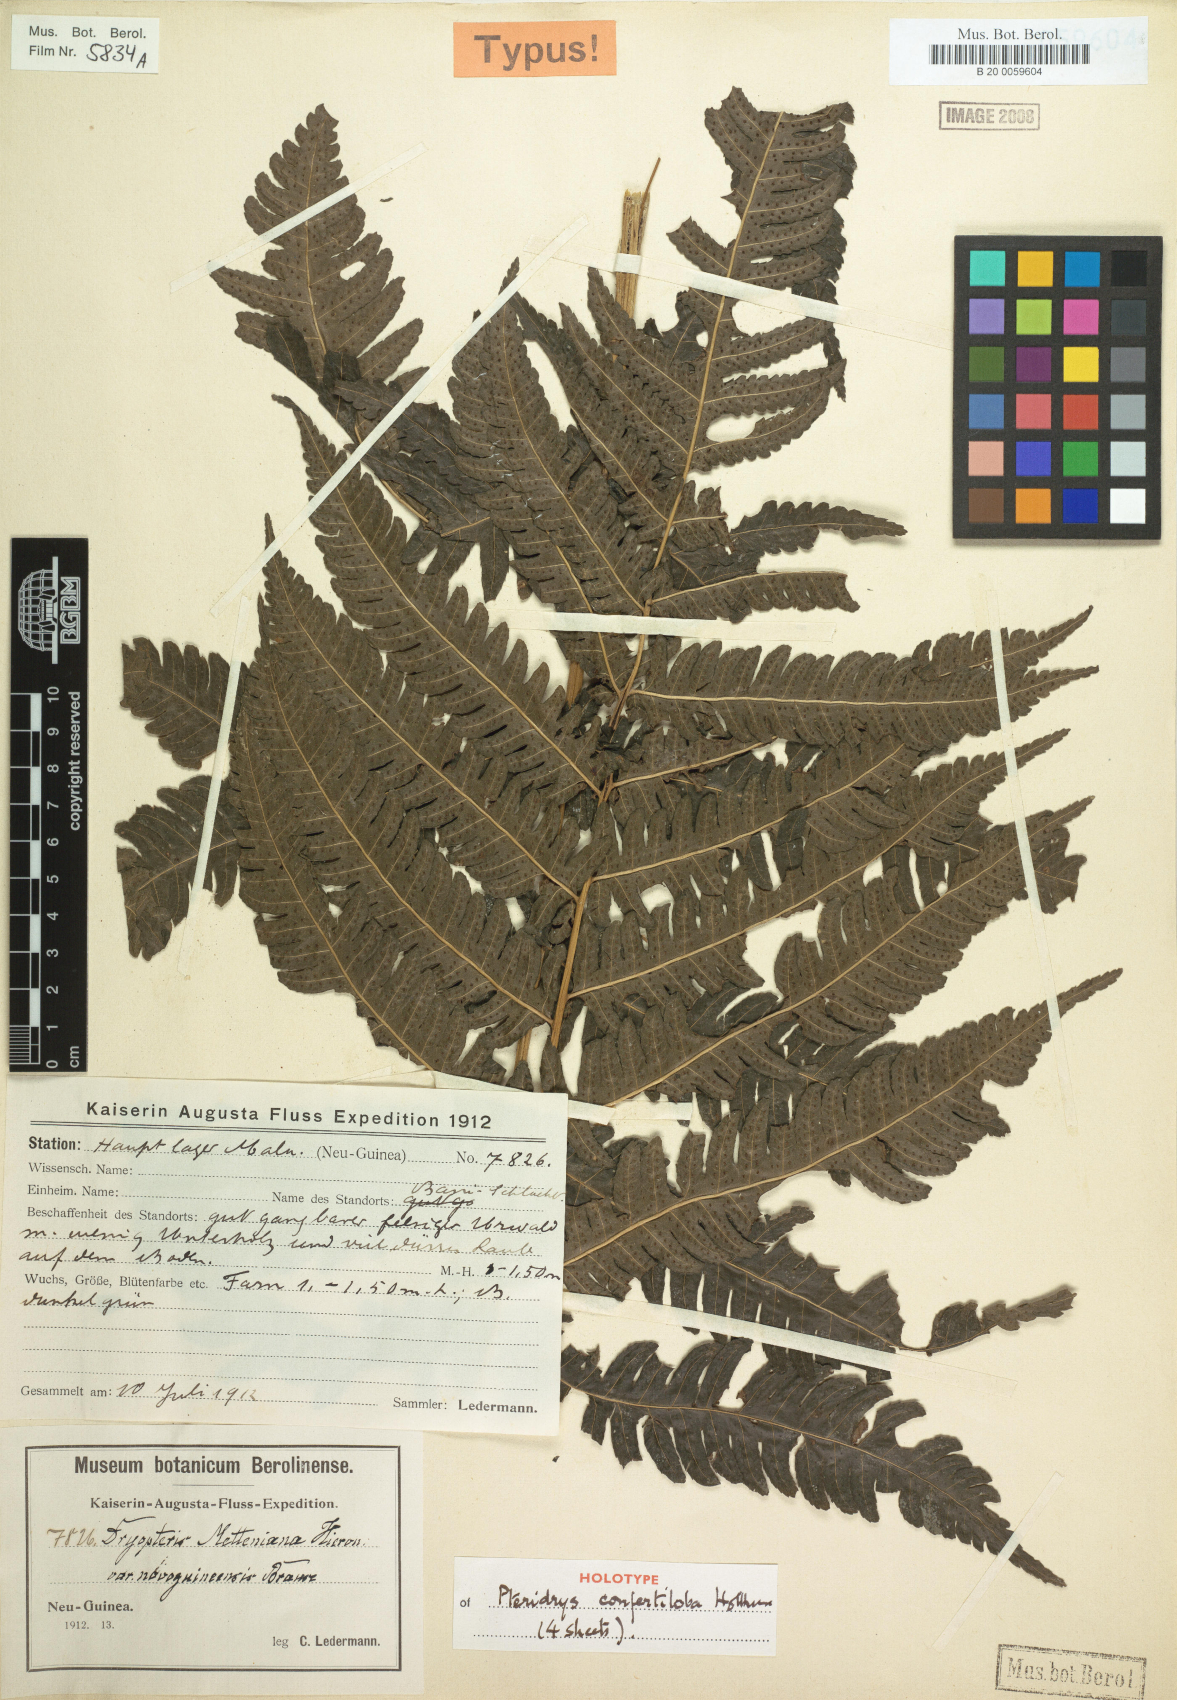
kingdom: Plantae
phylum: Tracheophyta
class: Polypodiopsida
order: Polypodiales
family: Tectariaceae
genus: Pteridrys
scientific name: Pteridrys confertiloba
